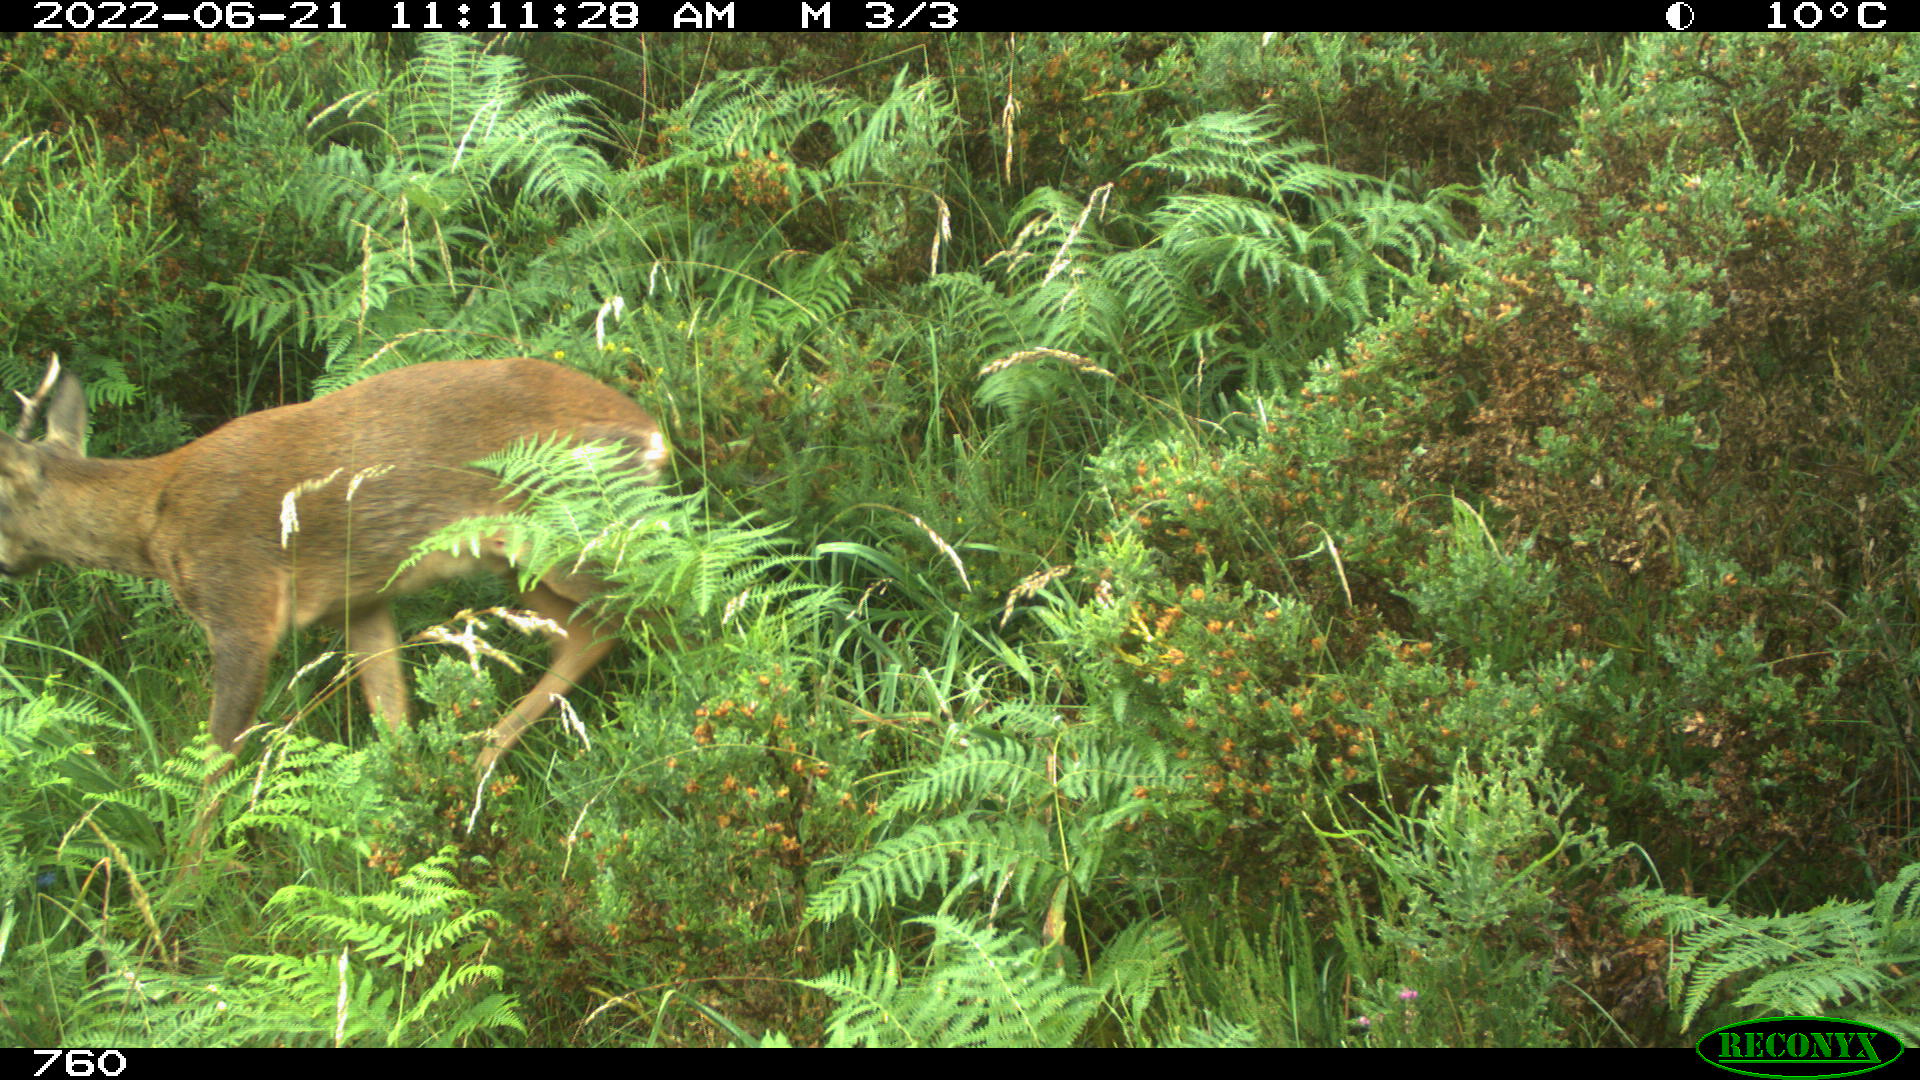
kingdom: Animalia
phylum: Chordata
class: Mammalia
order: Artiodactyla
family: Cervidae
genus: Capreolus
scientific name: Capreolus capreolus
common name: Western roe deer
